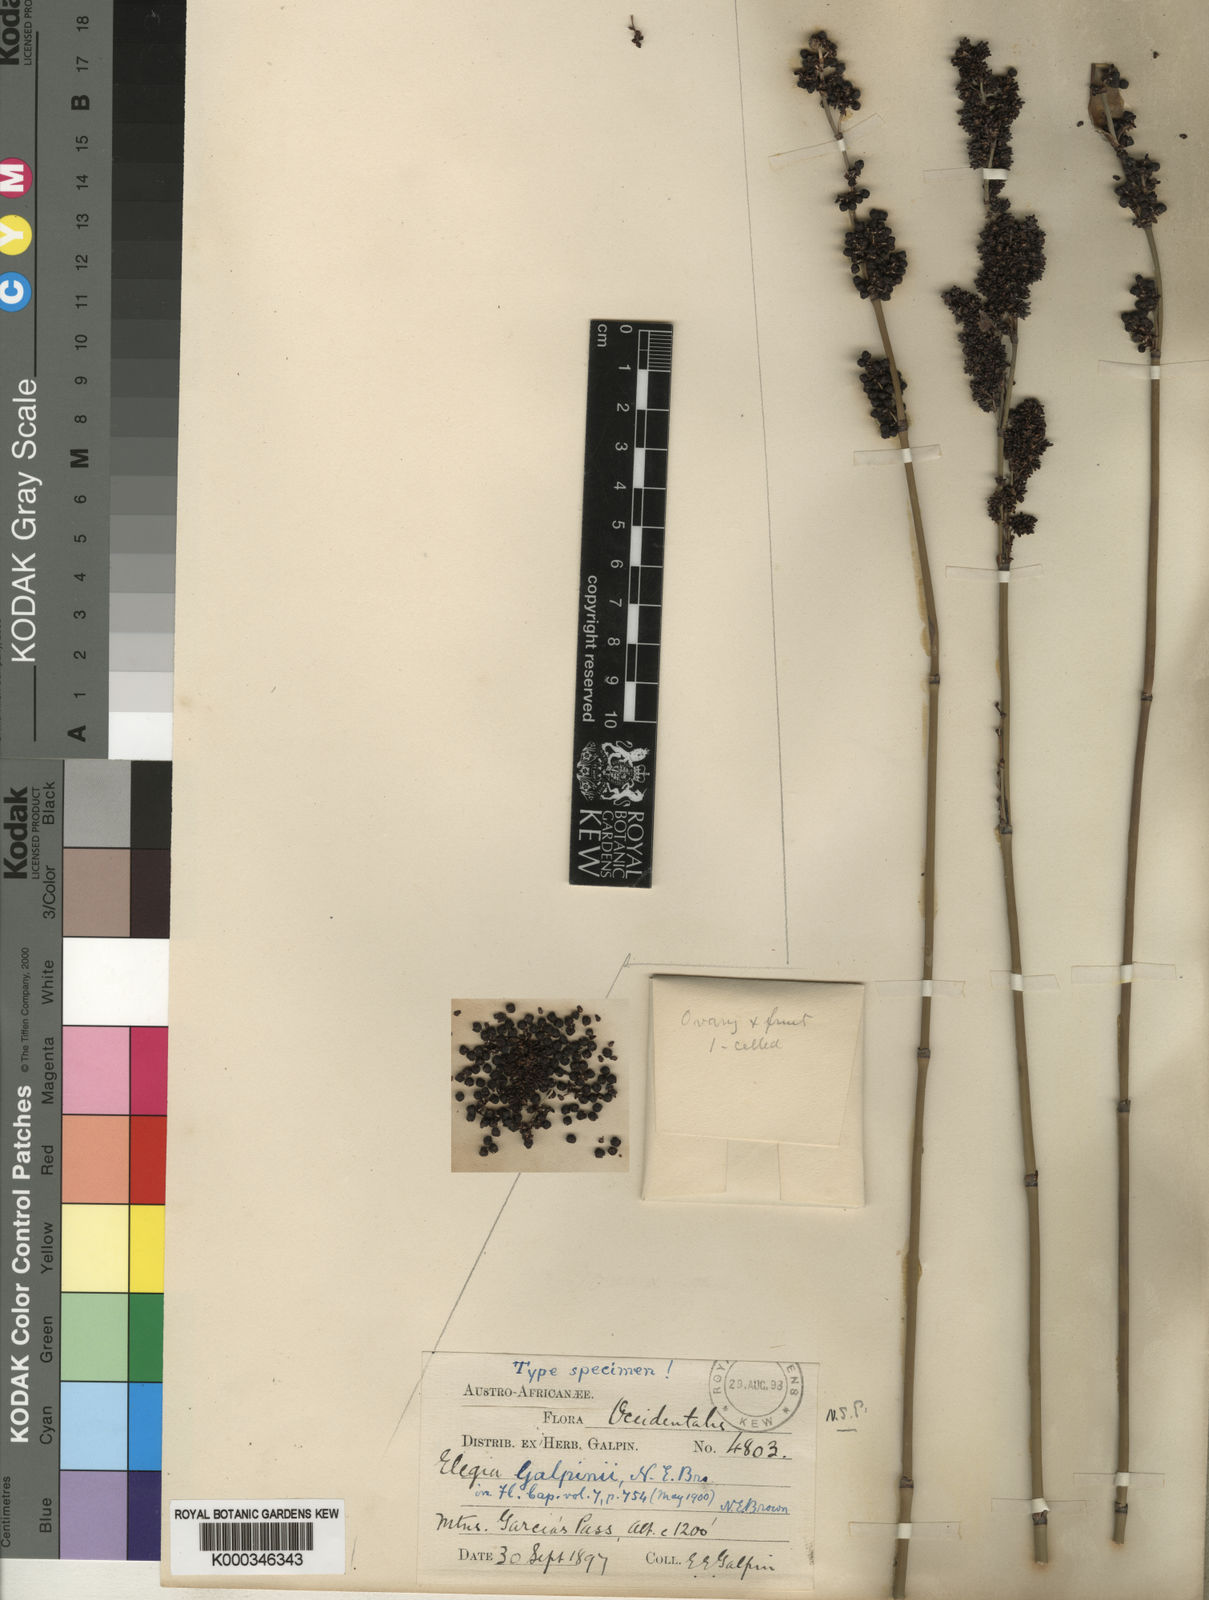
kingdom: Plantae
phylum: Tracheophyta
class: Liliopsida
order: Poales
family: Restionaceae
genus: Elegia
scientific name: Elegia galpinii
